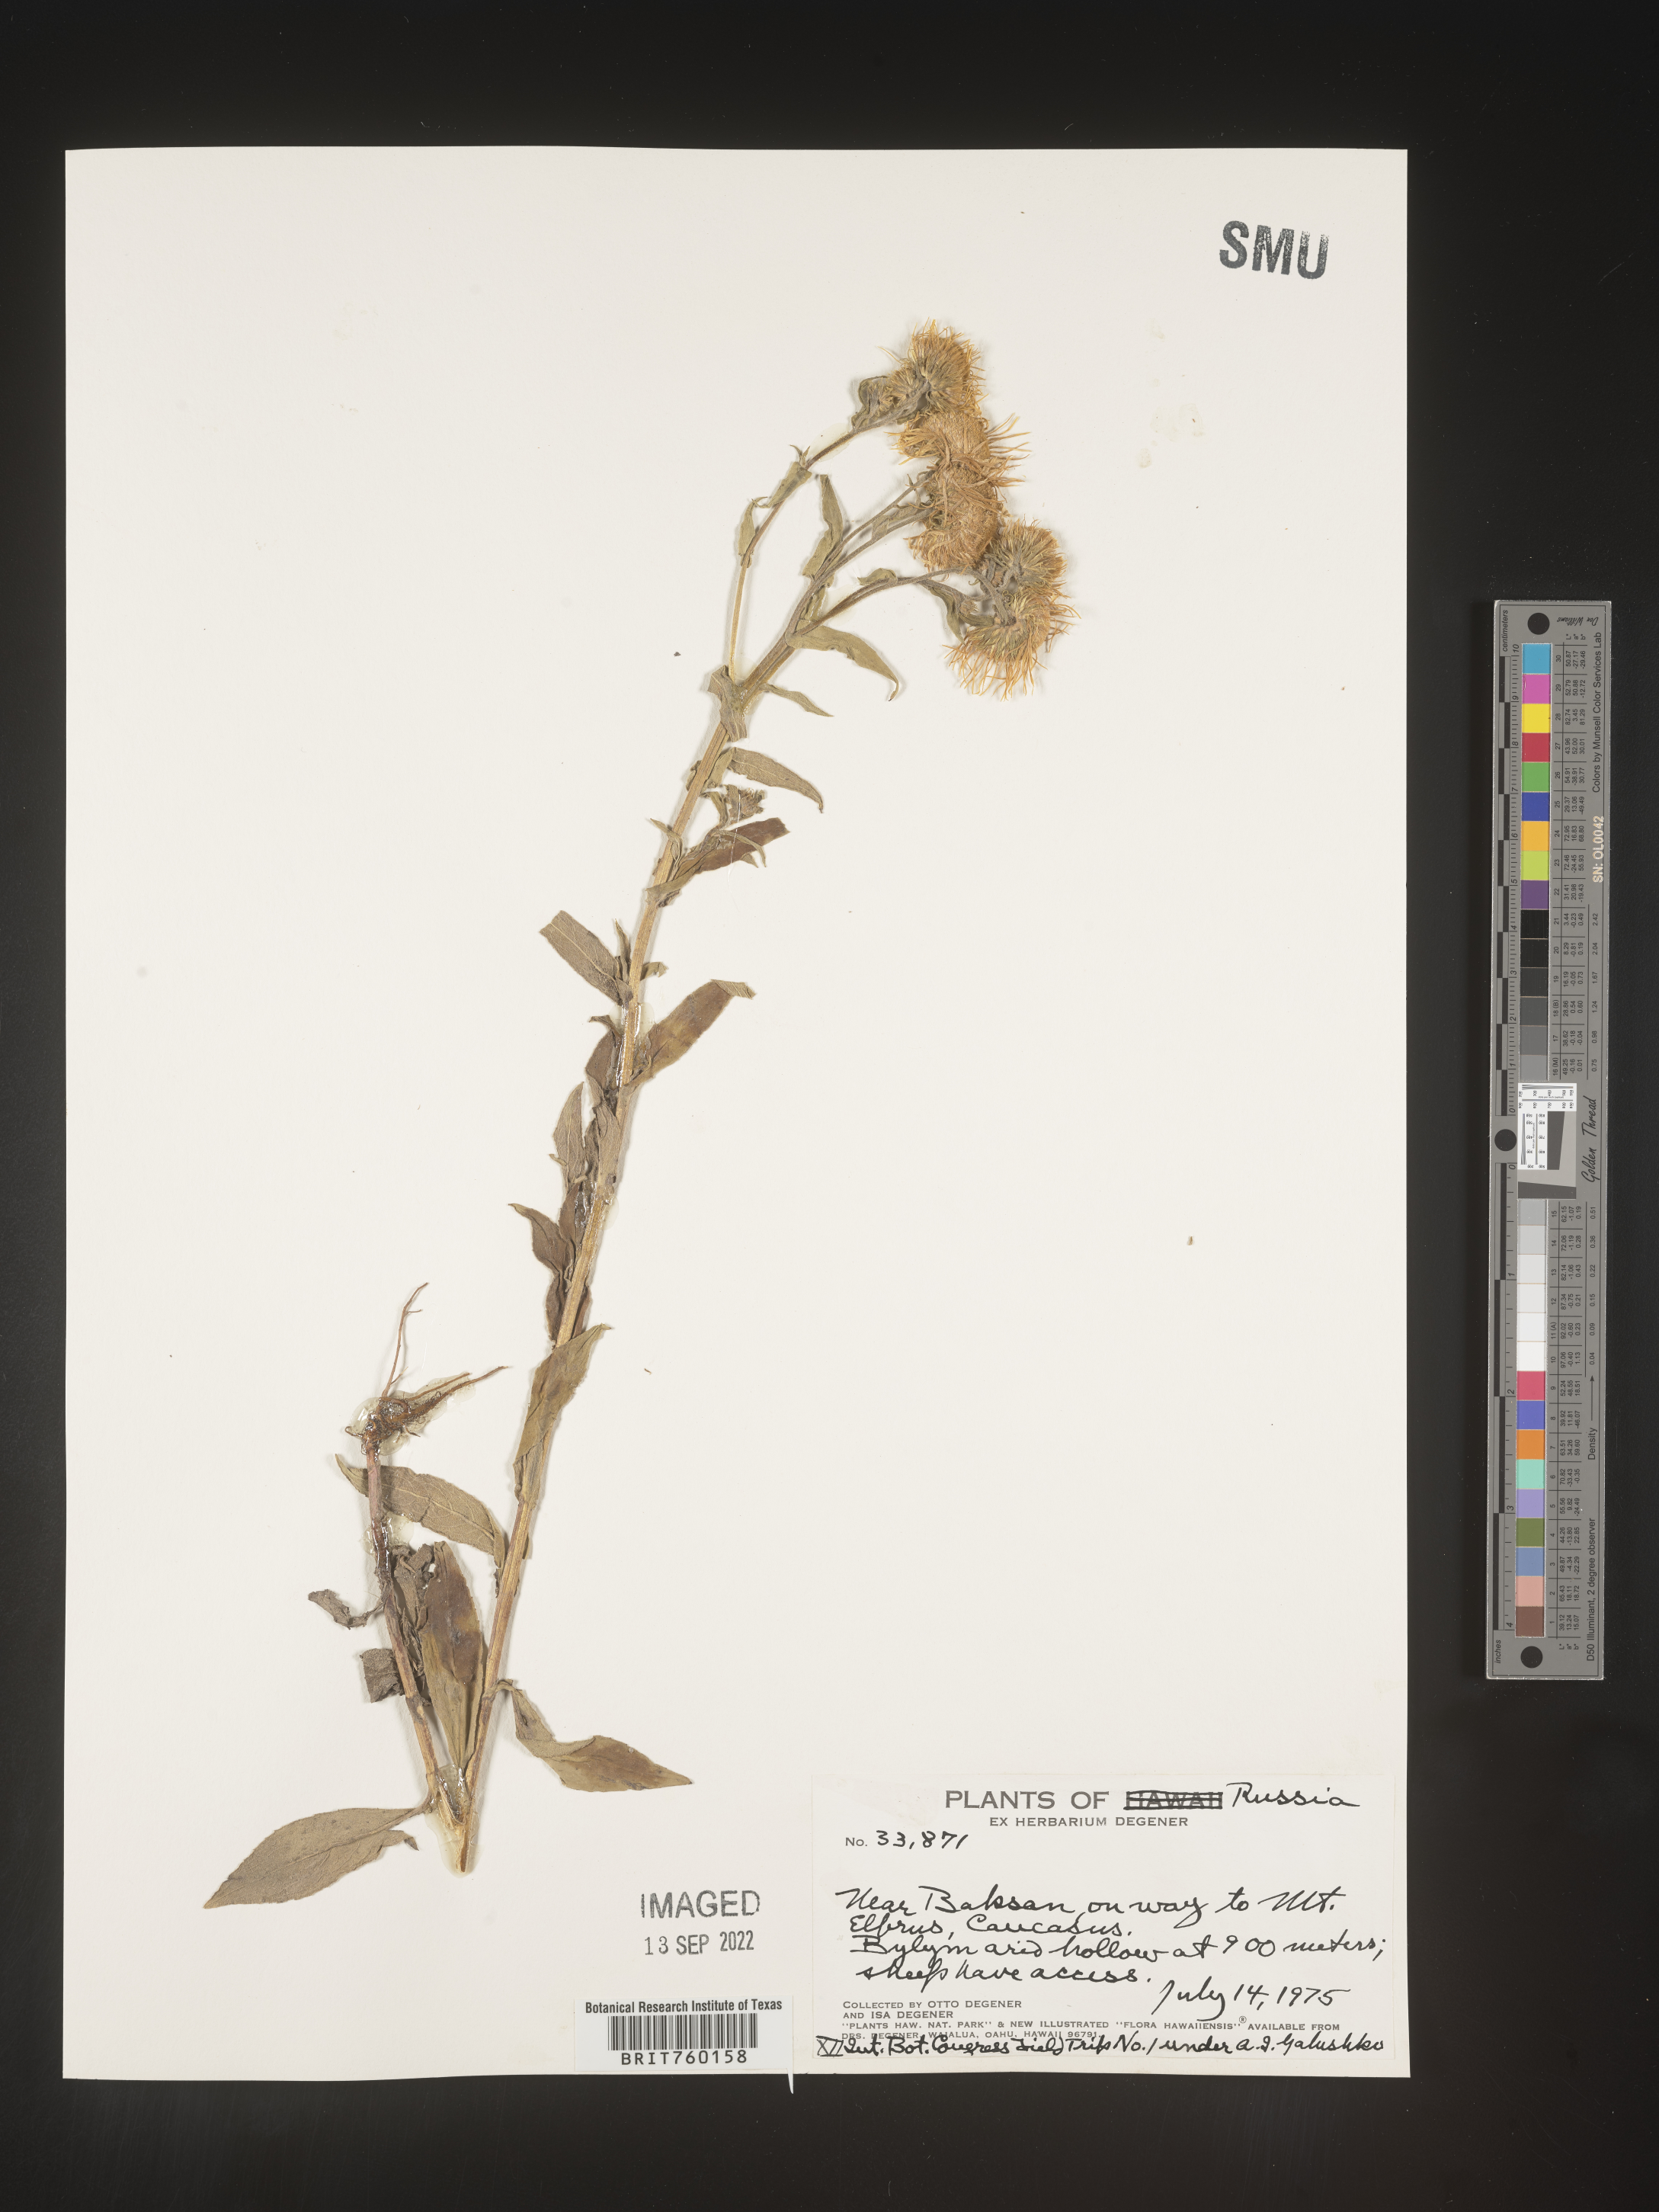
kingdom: Plantae
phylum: Tracheophyta
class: Magnoliopsida
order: Asterales
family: Asteraceae
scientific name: Asteraceae
